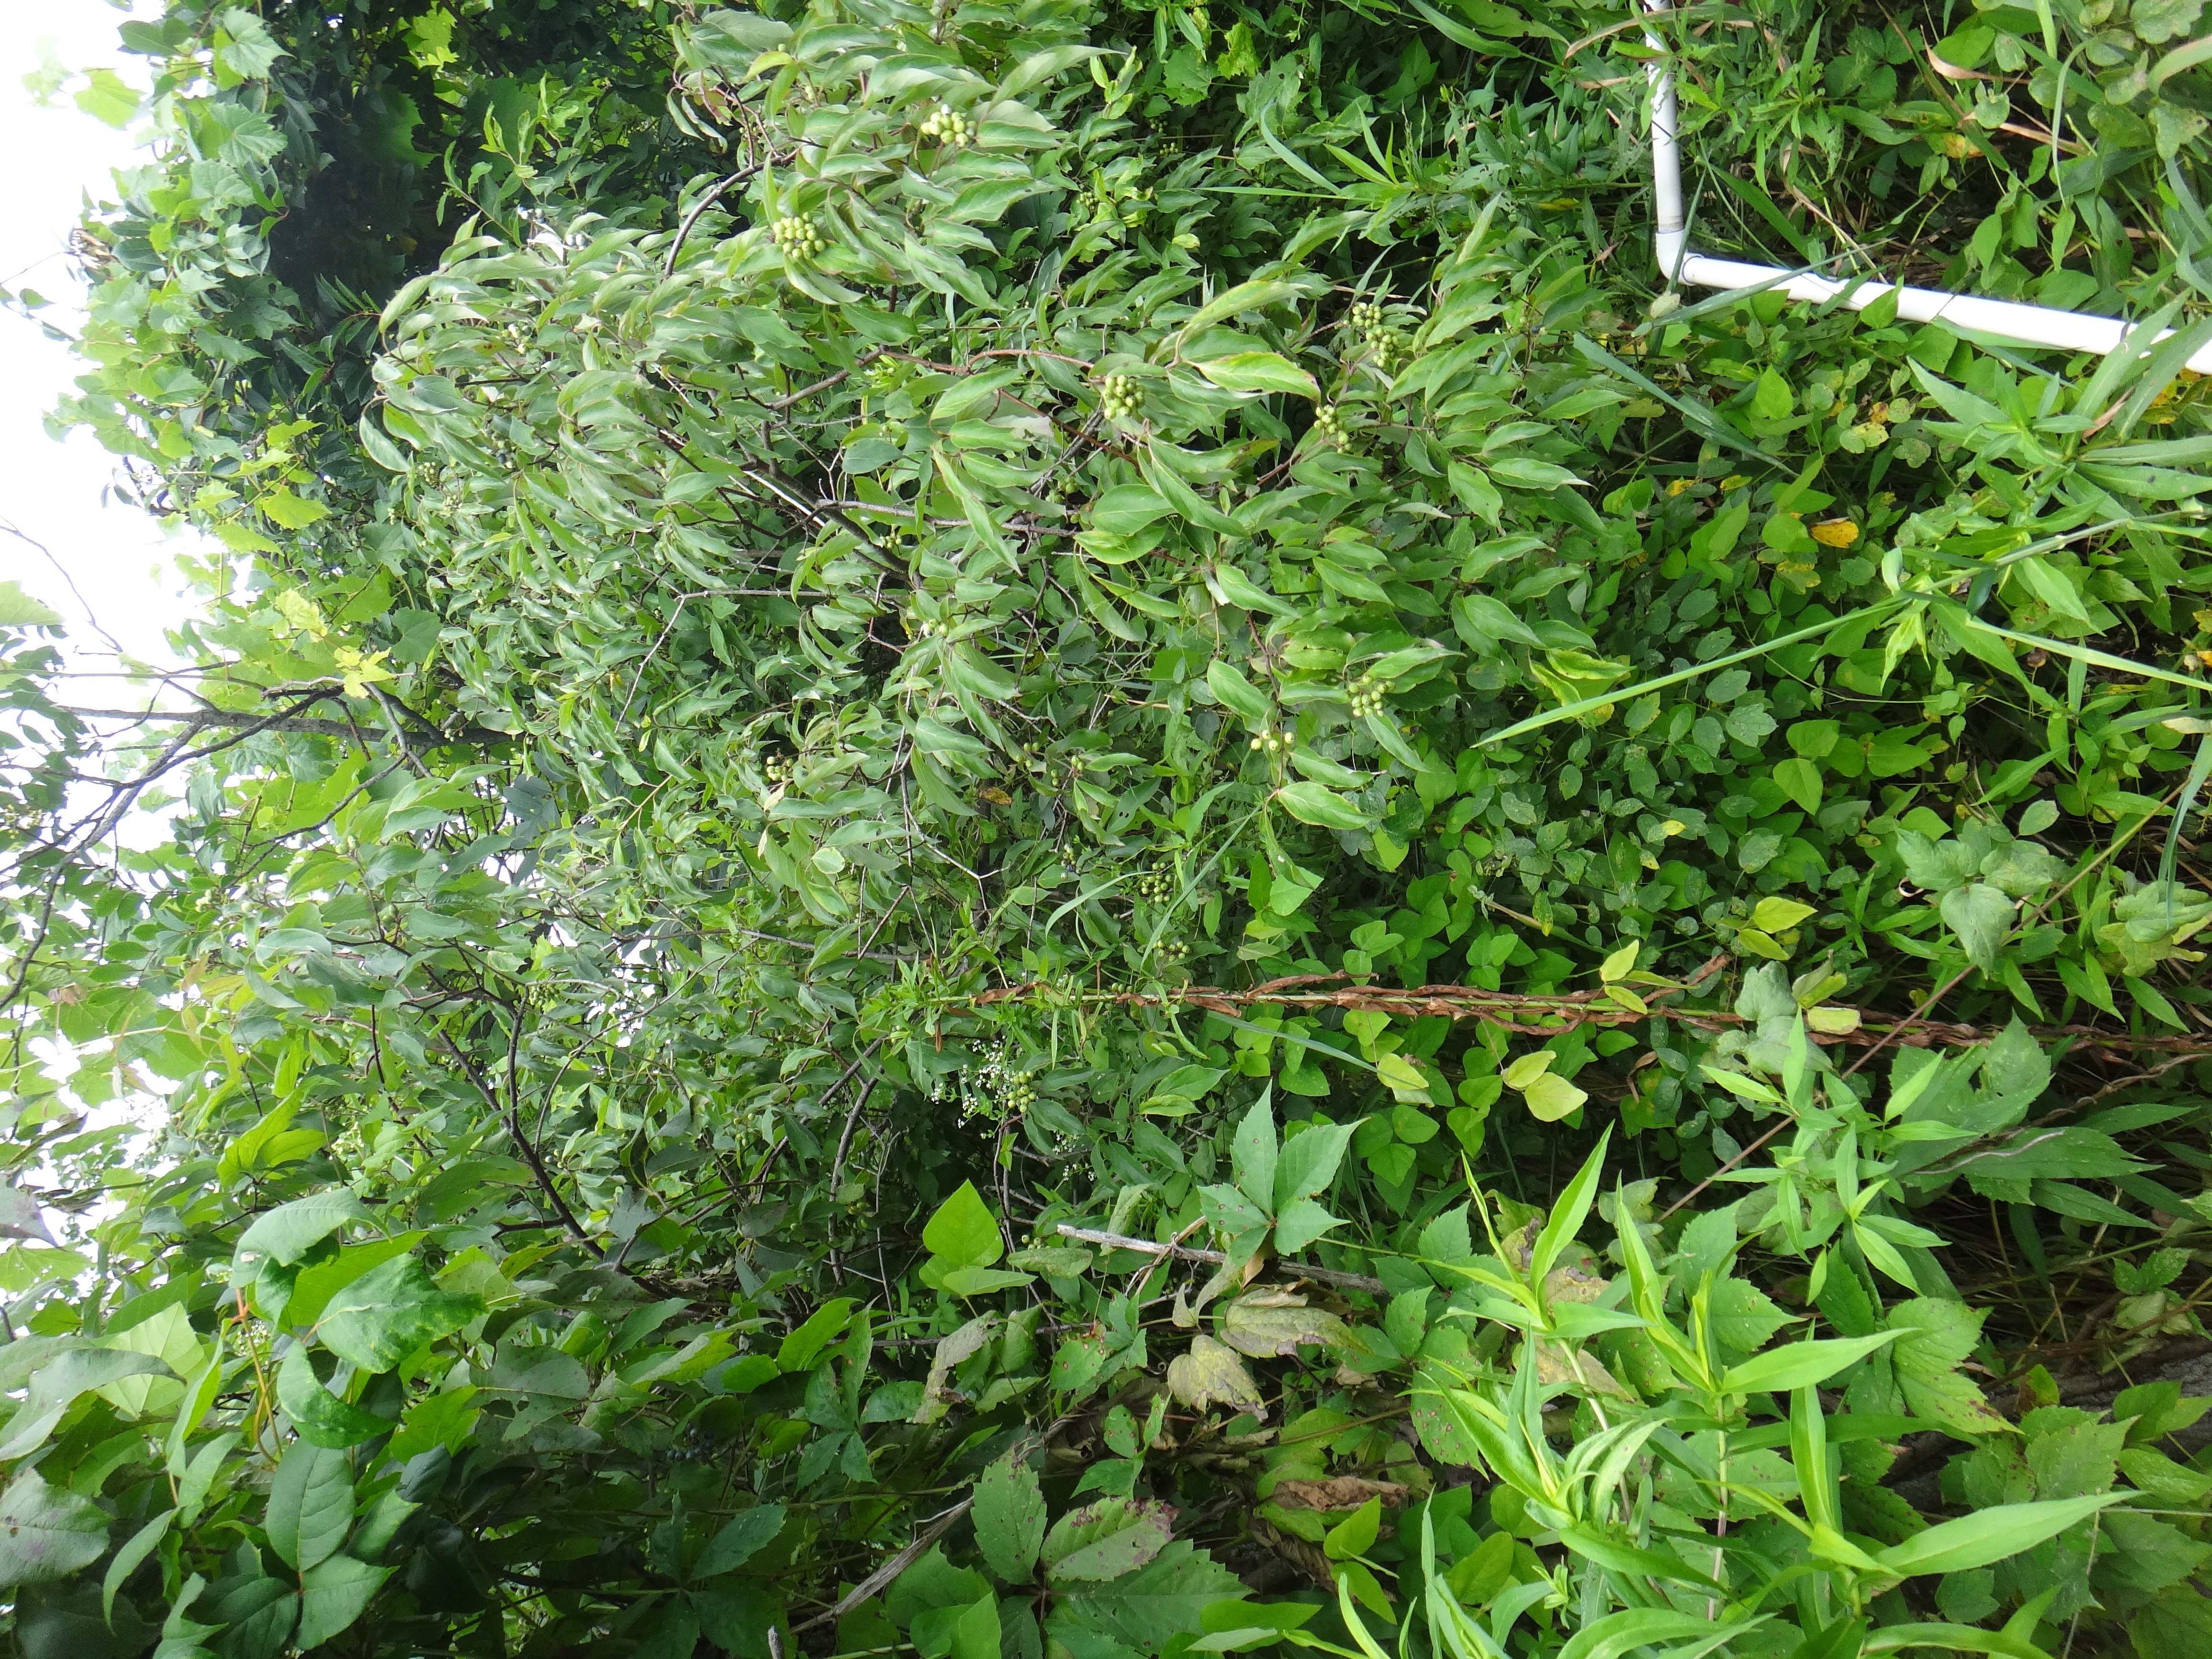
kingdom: Plantae
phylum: Tracheophyta
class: Magnoliopsida
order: Gentianales
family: Rubiaceae
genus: Galium
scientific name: Galium asprellum
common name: Rough bedstraw
